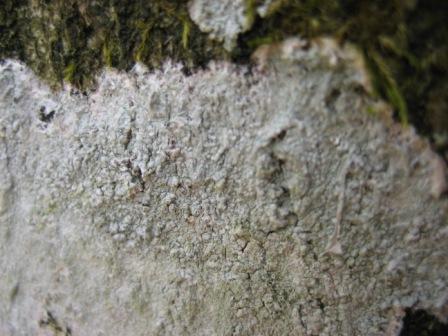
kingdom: Fungi
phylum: Ascomycota
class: Lecanoromycetes
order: Ostropales
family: Phlyctidaceae
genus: Phlyctis
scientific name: Phlyctis argena
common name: almindelig sølvlav
